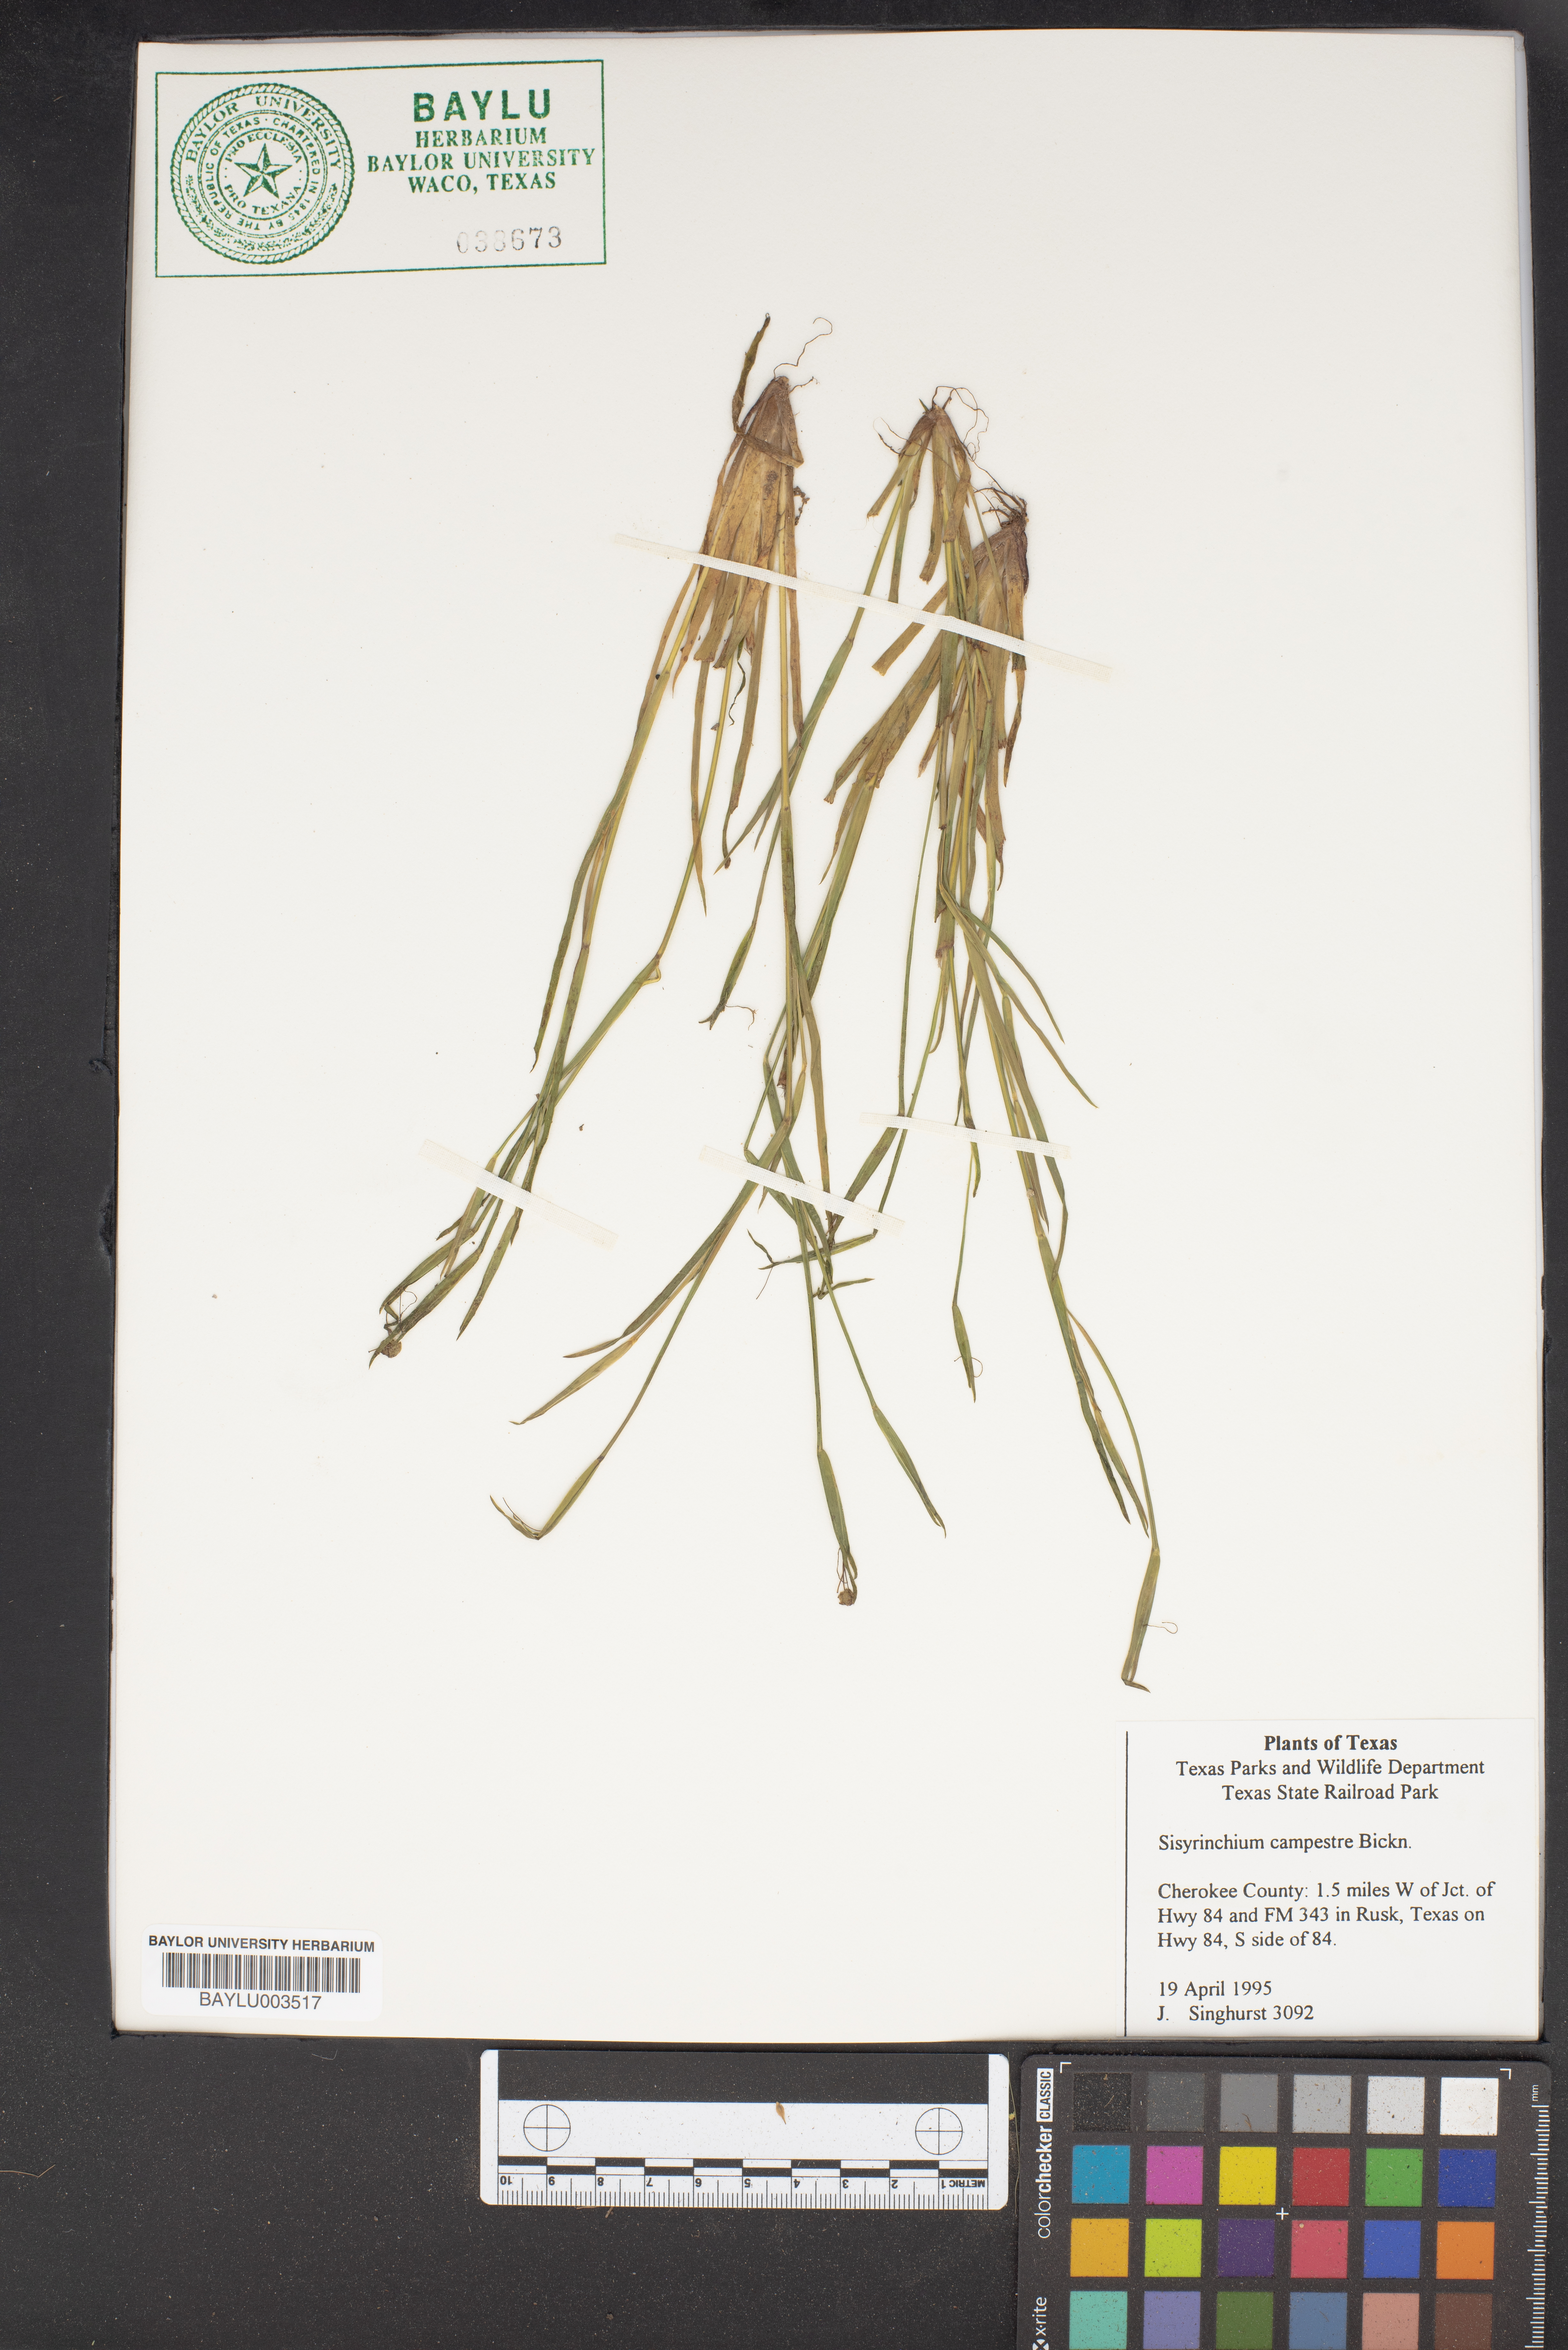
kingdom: Plantae
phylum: Tracheophyta
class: Liliopsida
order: Asparagales
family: Iridaceae
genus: Sisyrinchium
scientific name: Sisyrinchium campestre
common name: Prairie blue-eyed-grass
